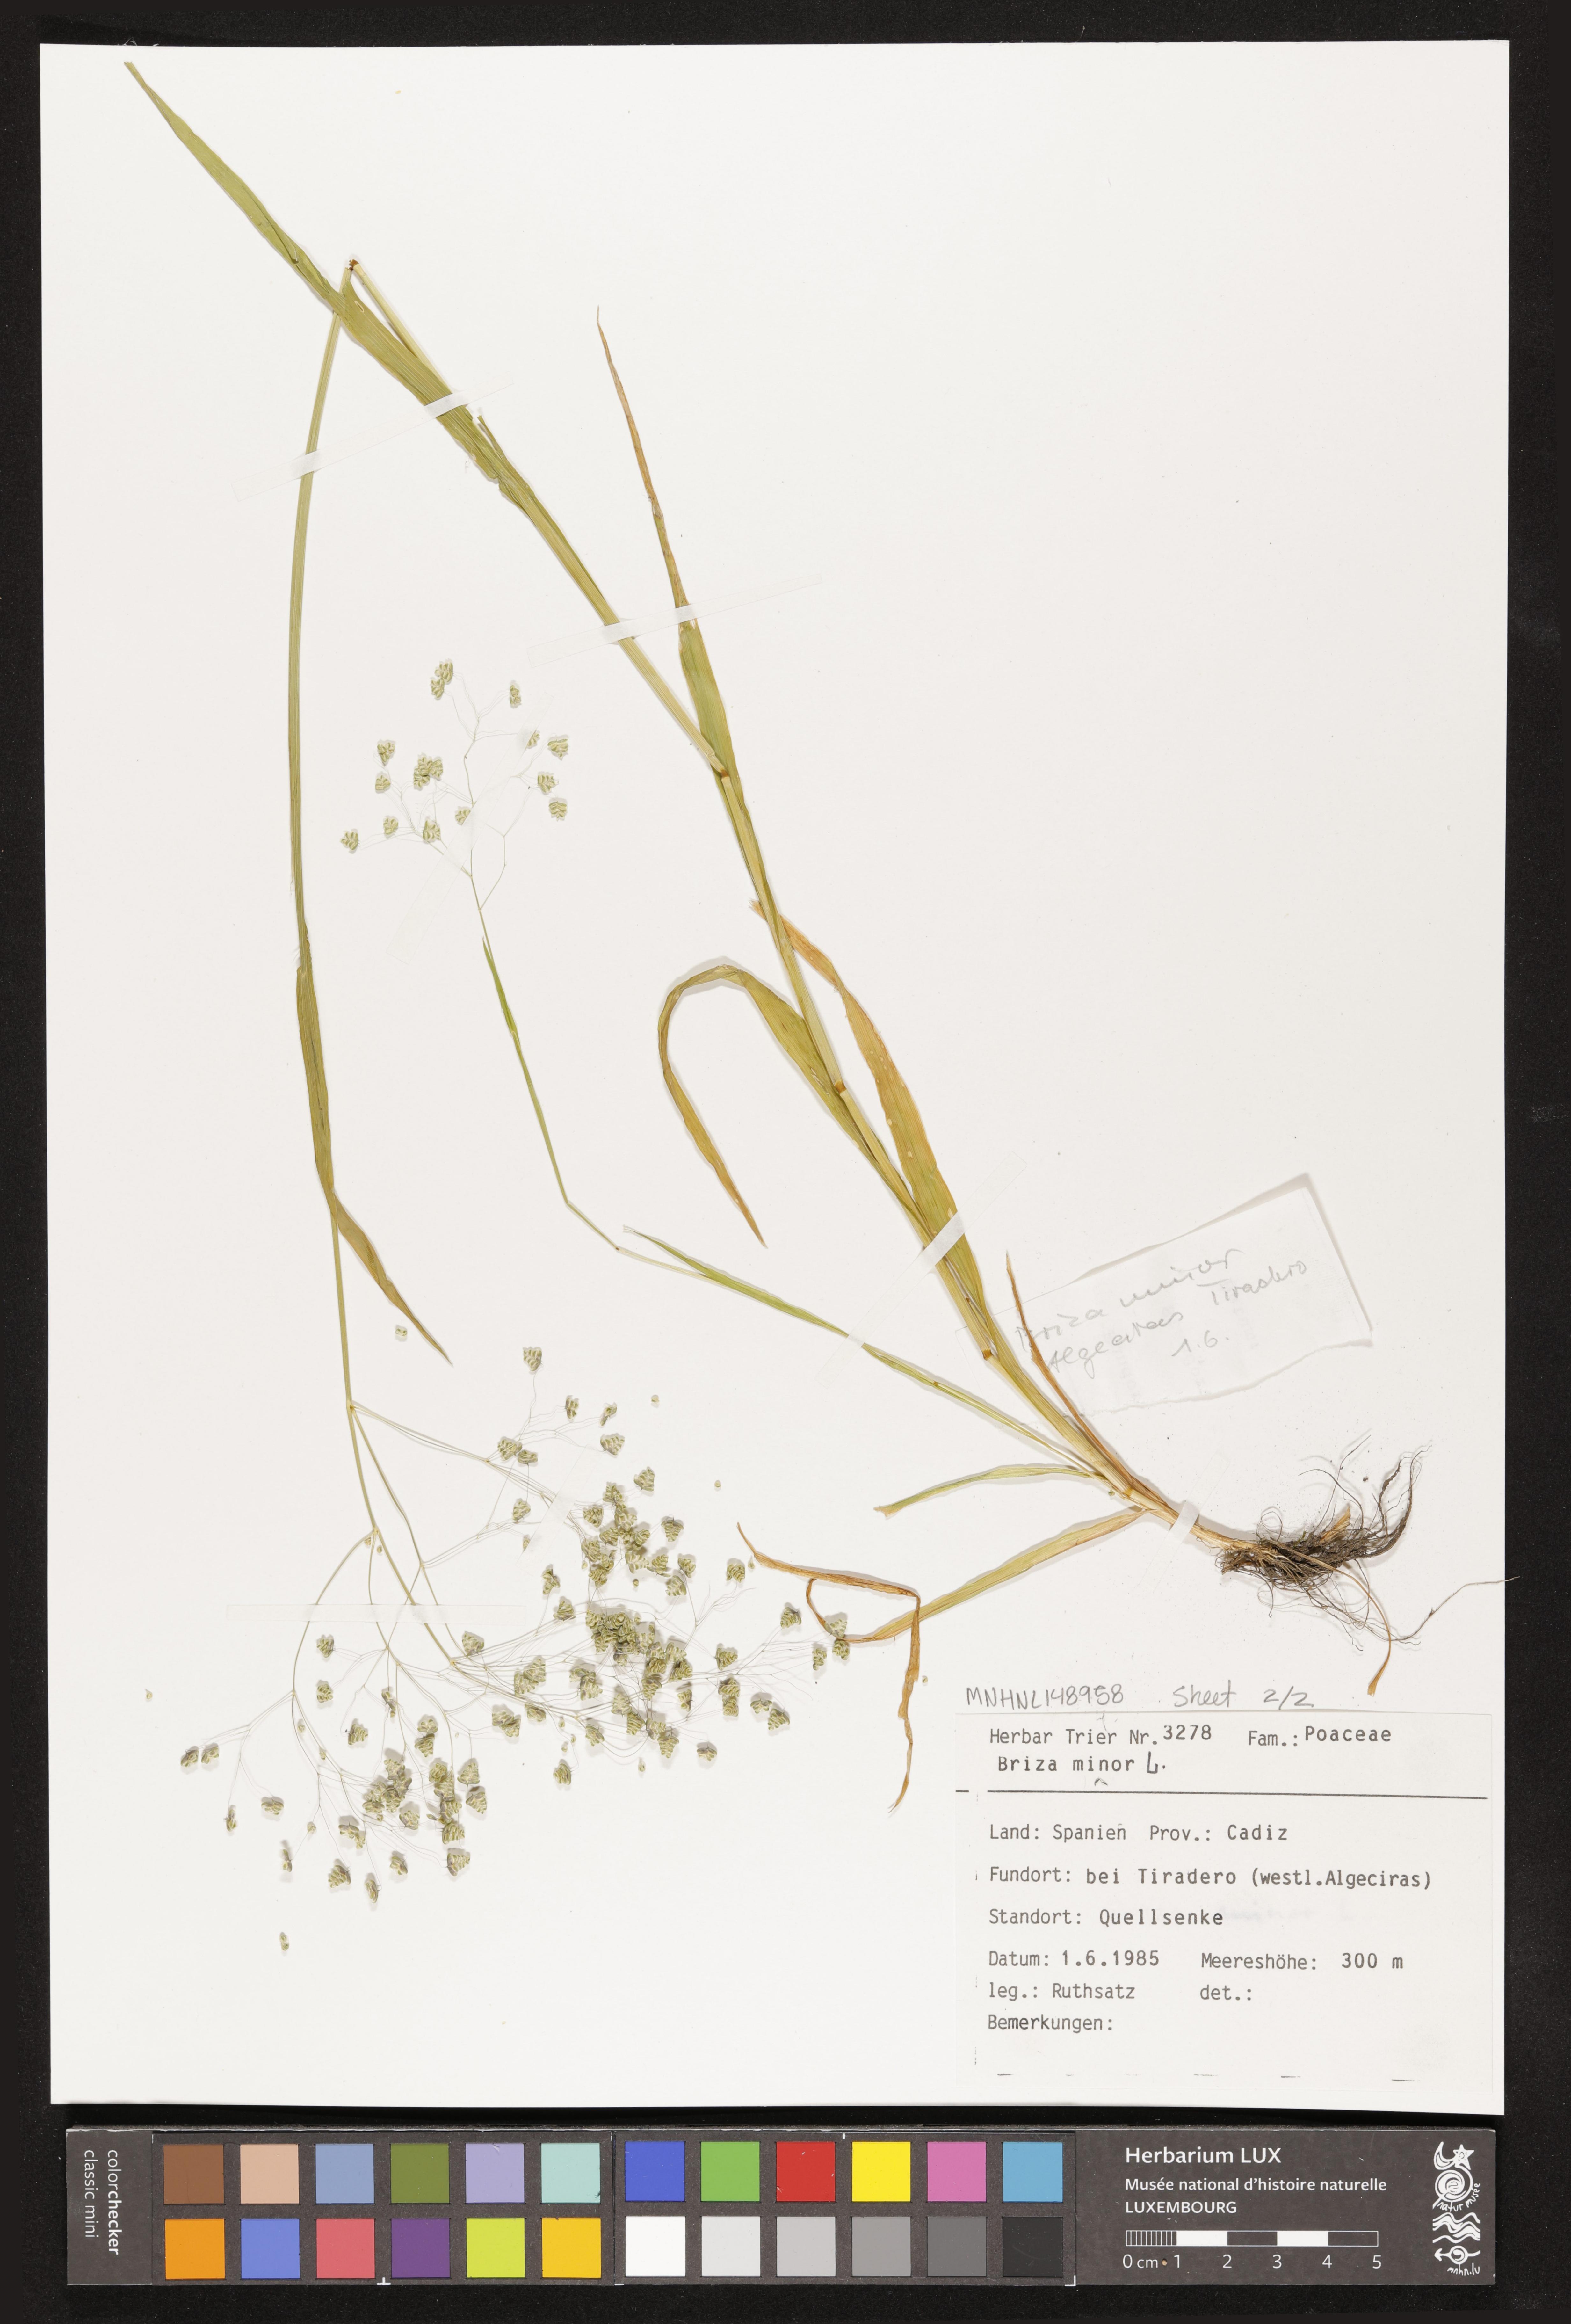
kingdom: Plantae
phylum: Tracheophyta
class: Liliopsida
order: Poales
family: Poaceae
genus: Briza
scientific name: Briza minor
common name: Lesser quaking-grass
